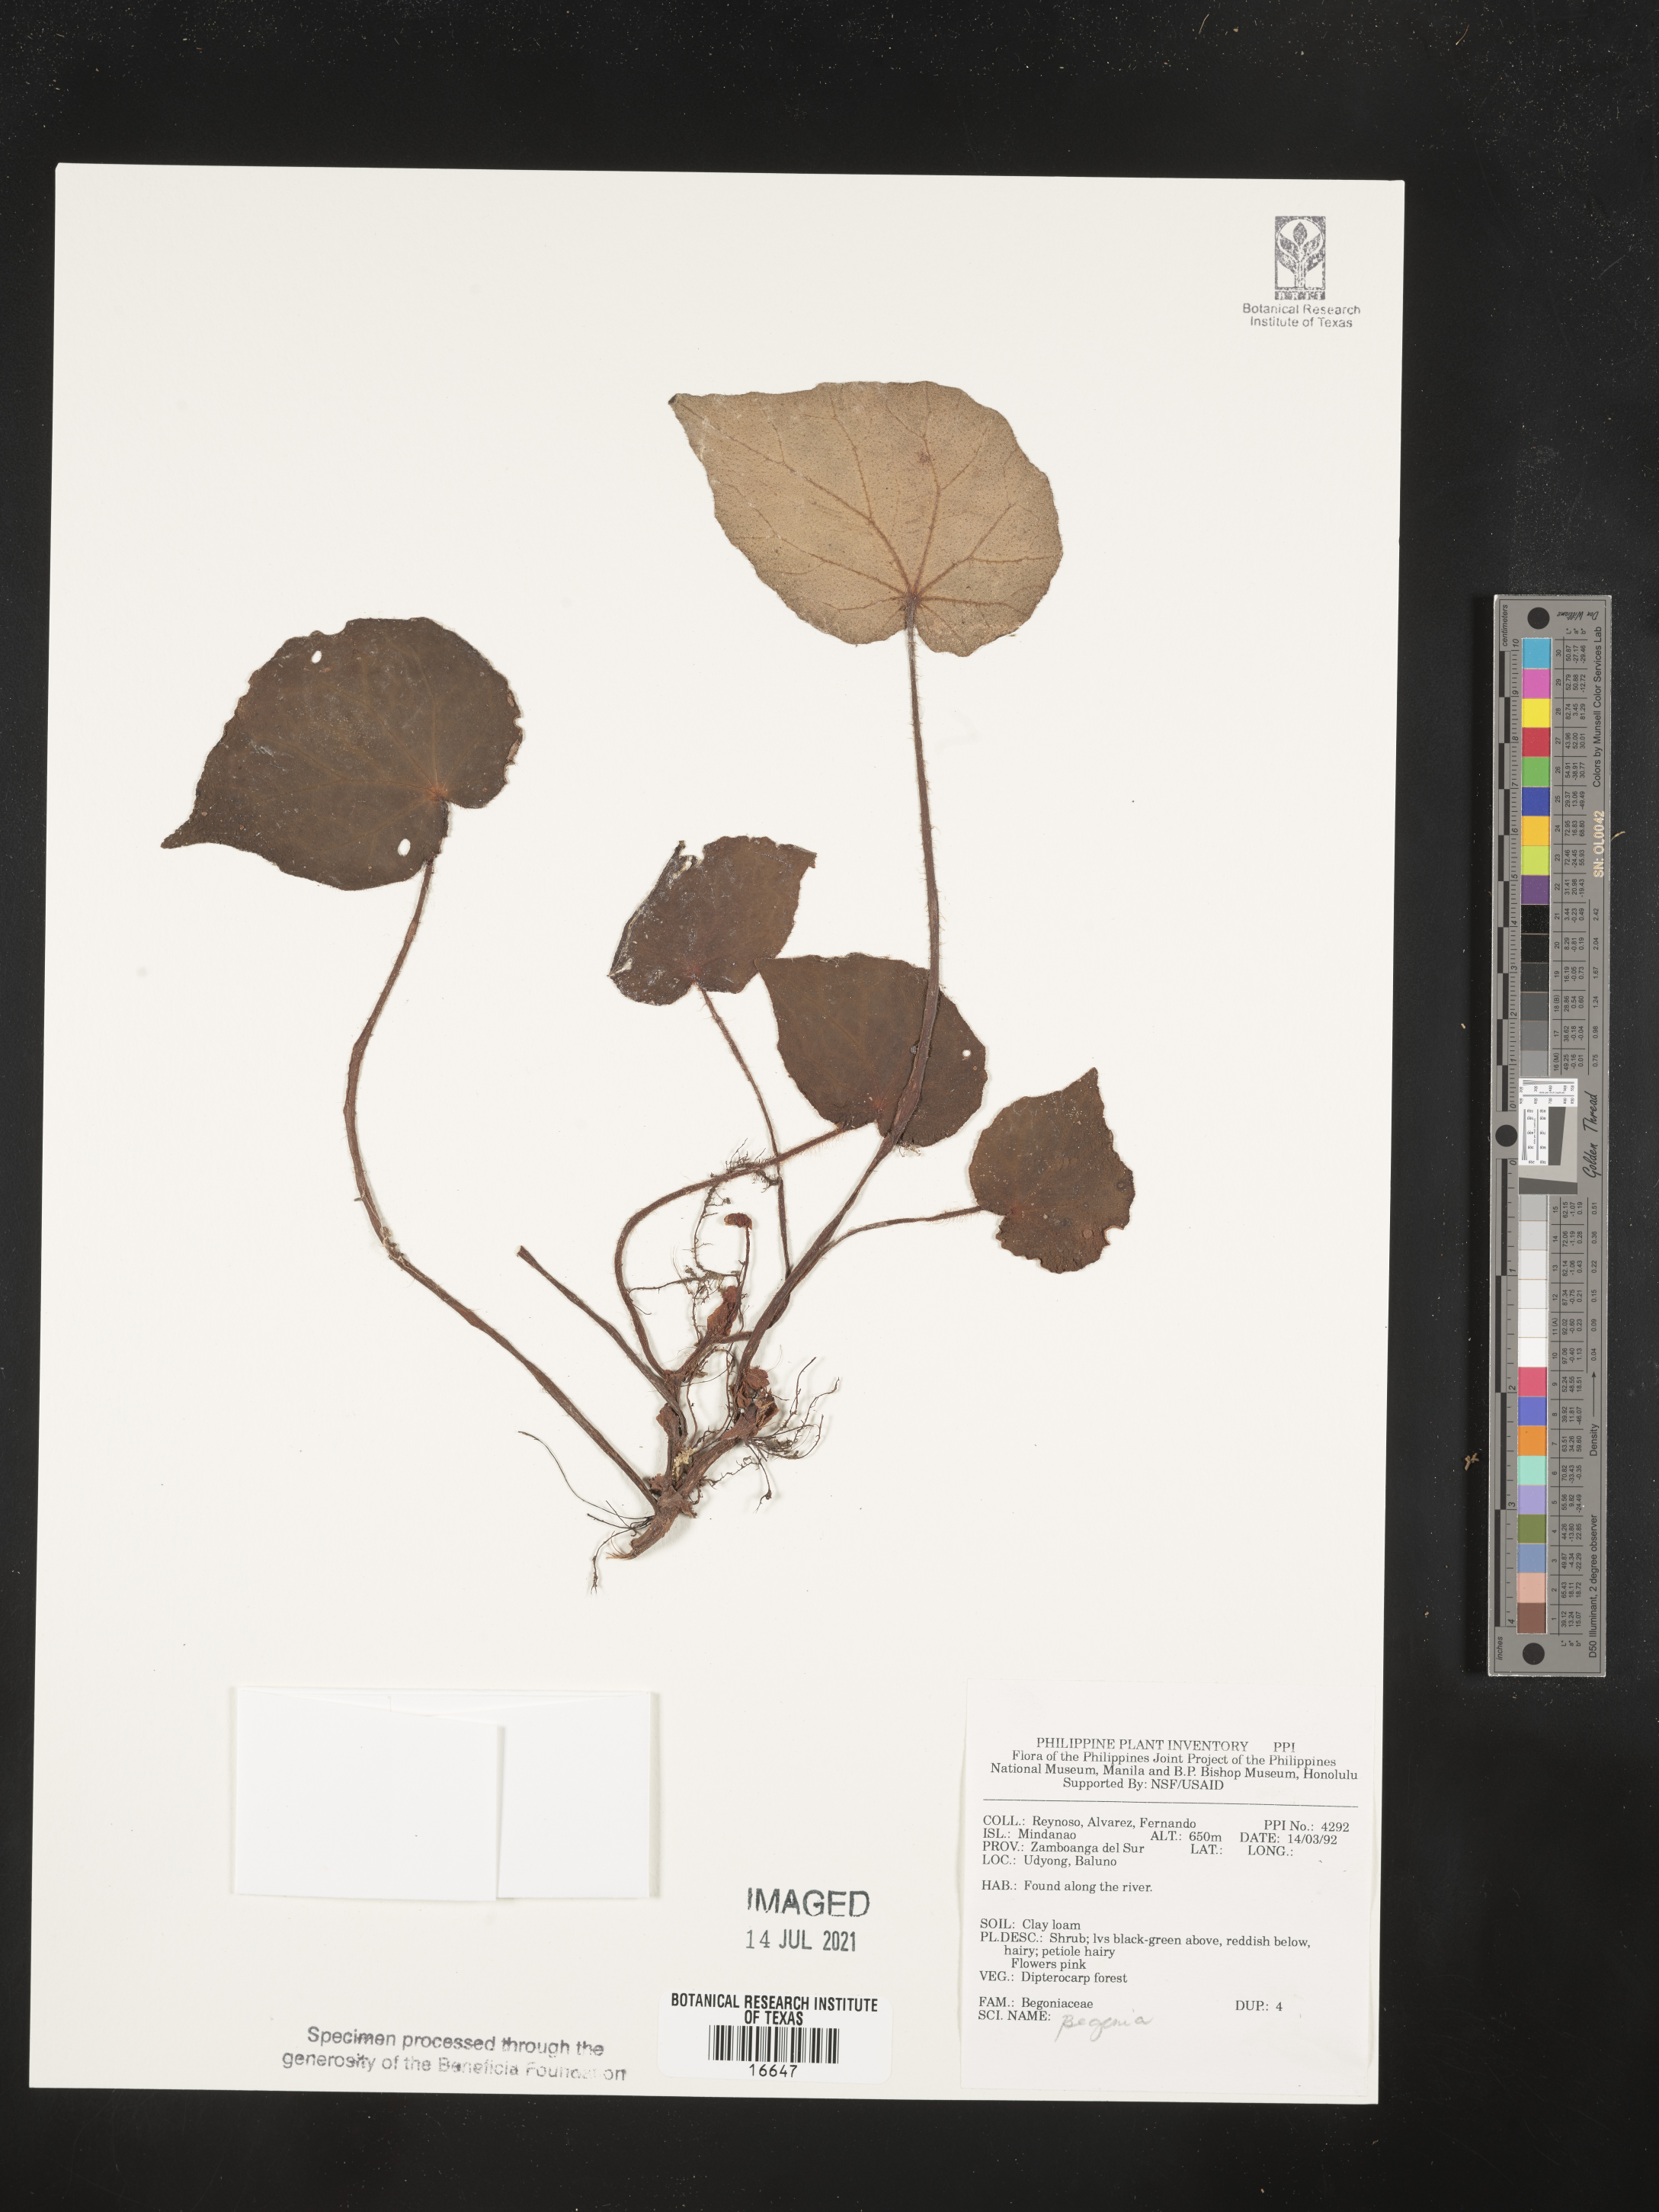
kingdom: Plantae
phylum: Tracheophyta
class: Magnoliopsida
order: Cucurbitales
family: Begoniaceae
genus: Begonia
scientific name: Begonia
